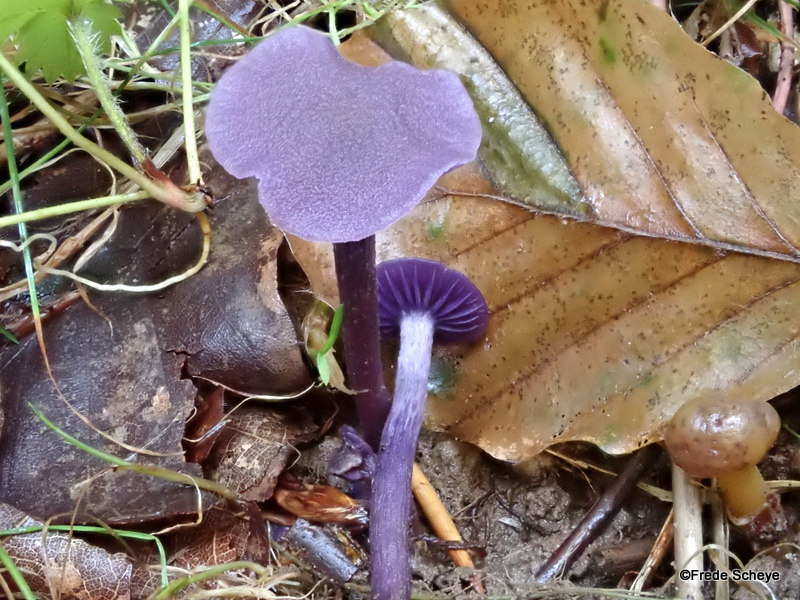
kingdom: Fungi
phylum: Basidiomycota
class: Agaricomycetes
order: Agaricales
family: Hydnangiaceae
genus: Laccaria
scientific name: Laccaria amethystina
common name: violet ametysthat
